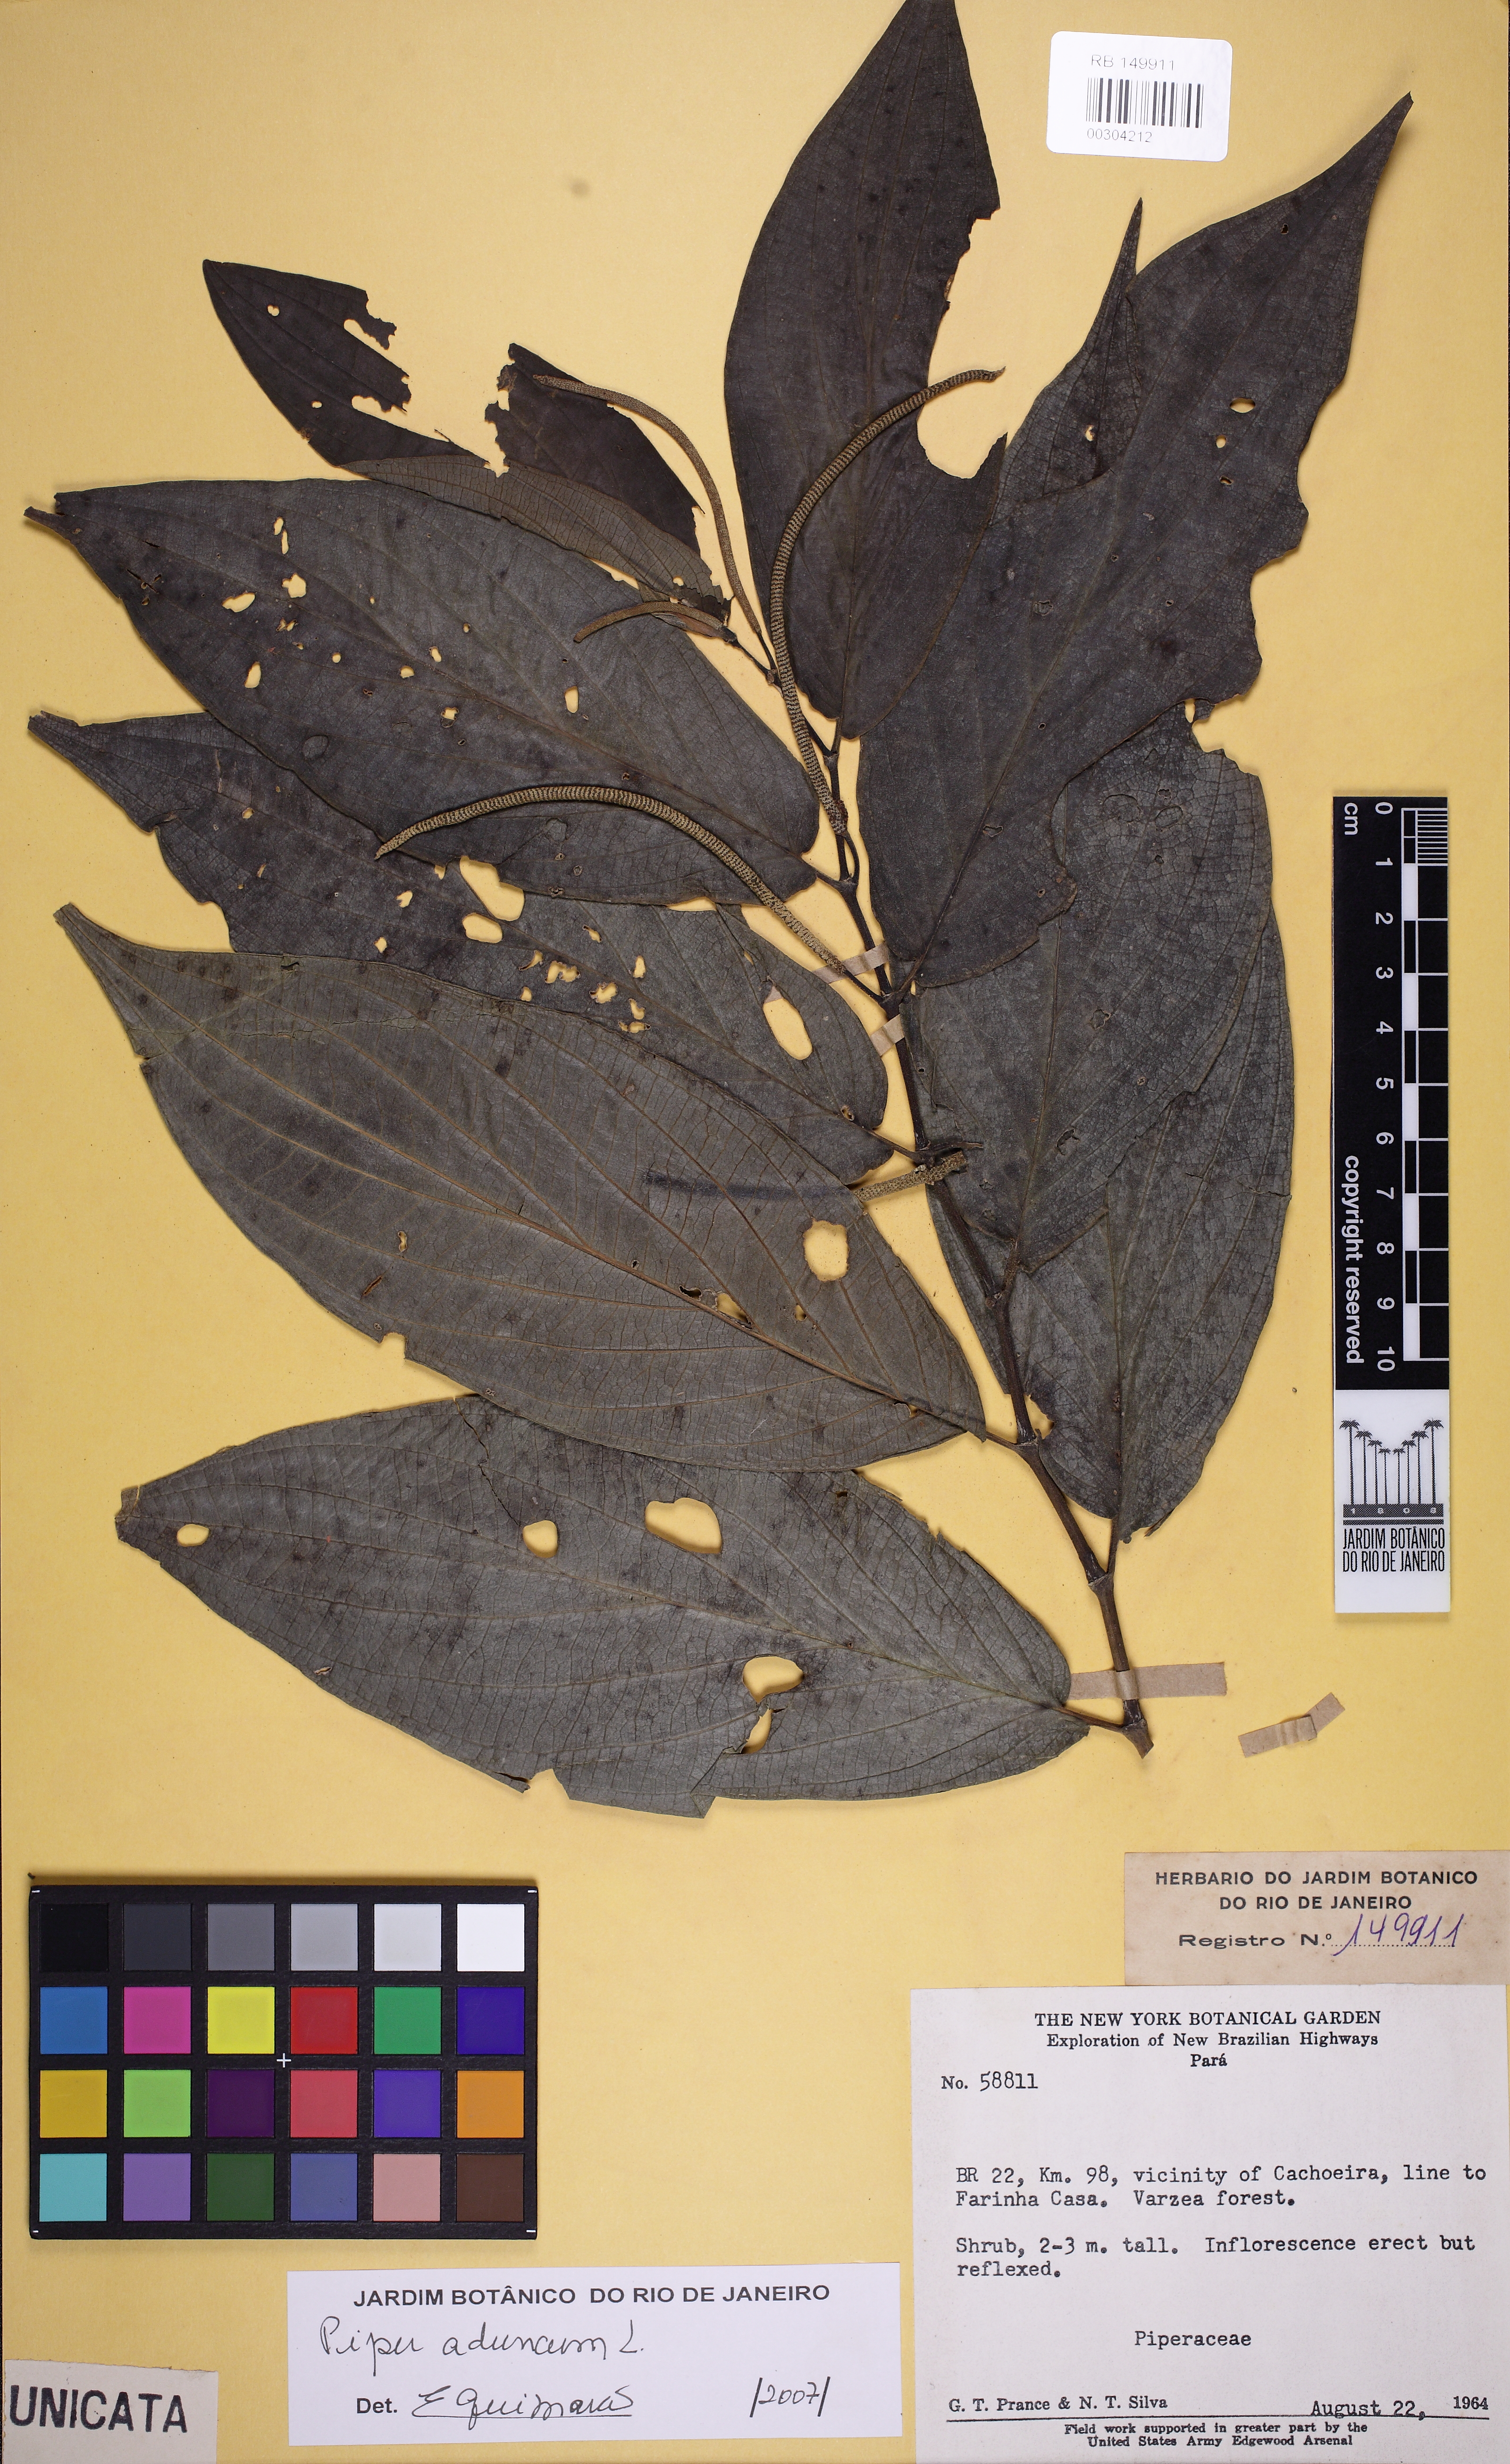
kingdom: Plantae
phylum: Tracheophyta
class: Magnoliopsida
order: Piperales
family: Piperaceae
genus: Piper
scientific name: Piper aduncum
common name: Spiked pepper
